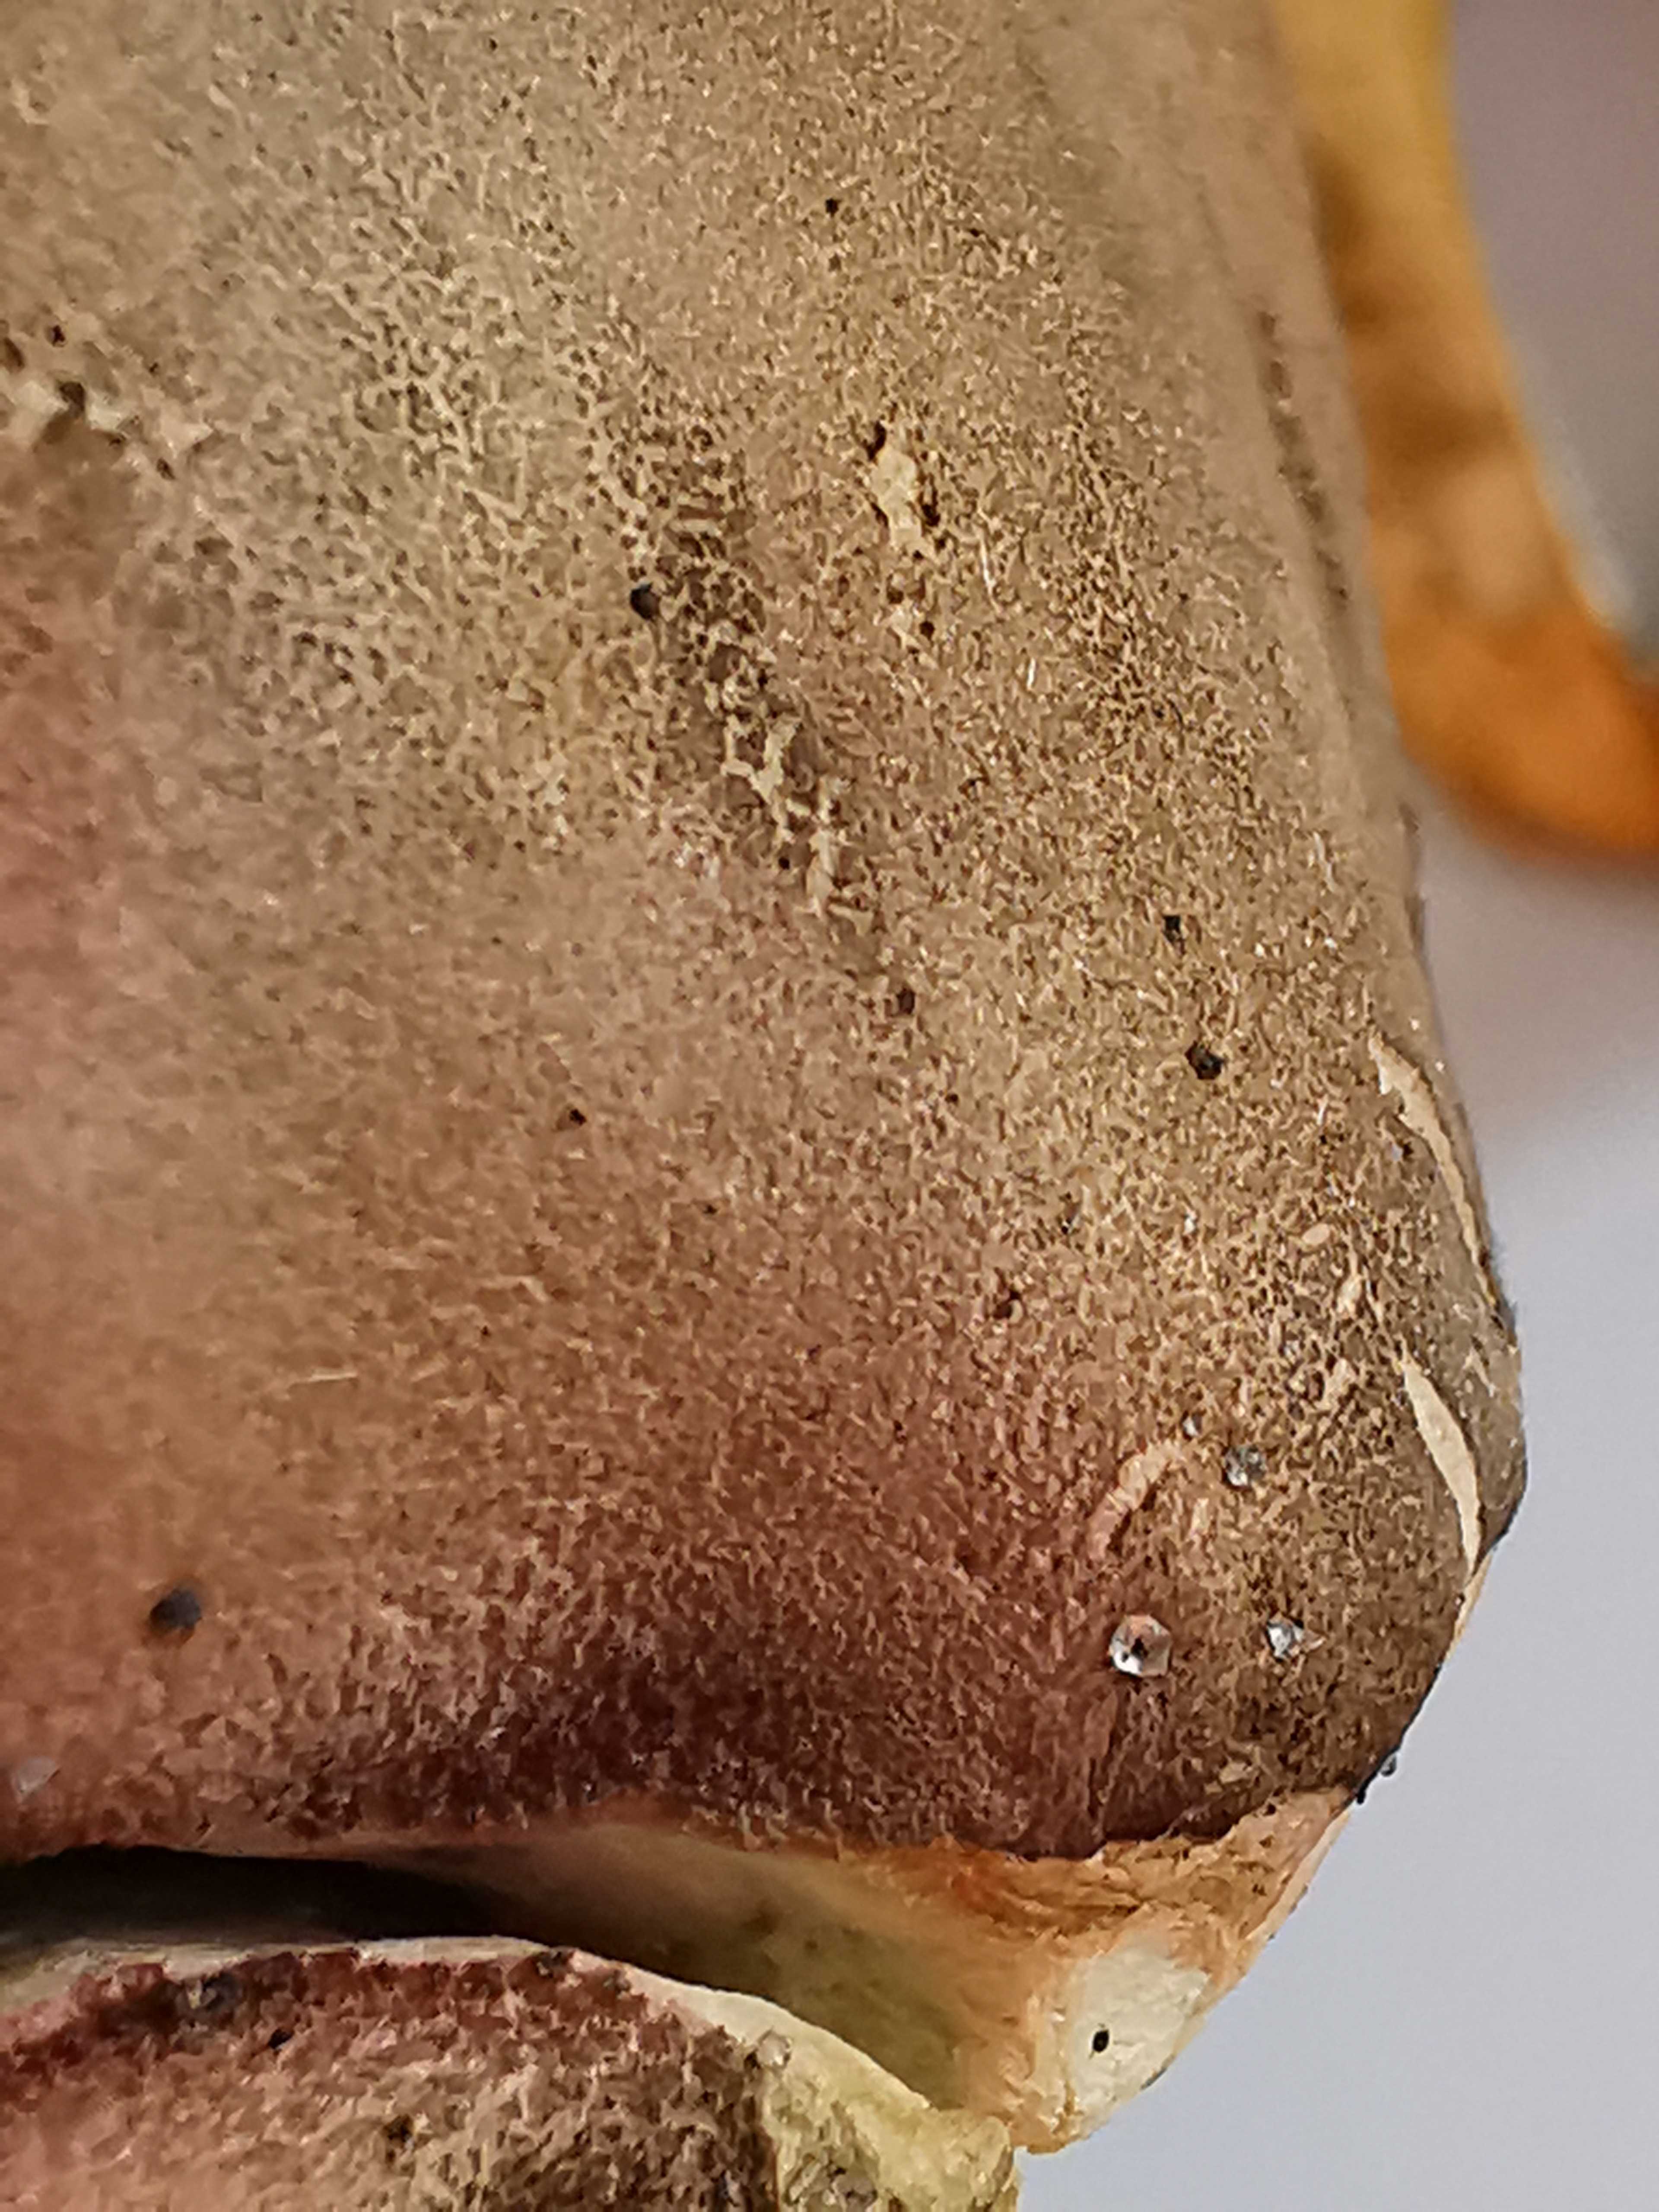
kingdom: Fungi
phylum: Basidiomycota
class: Agaricomycetes
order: Boletales
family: Boletaceae
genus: Hortiboletus
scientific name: Hortiboletus rubellus
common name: blodrød rørhat
